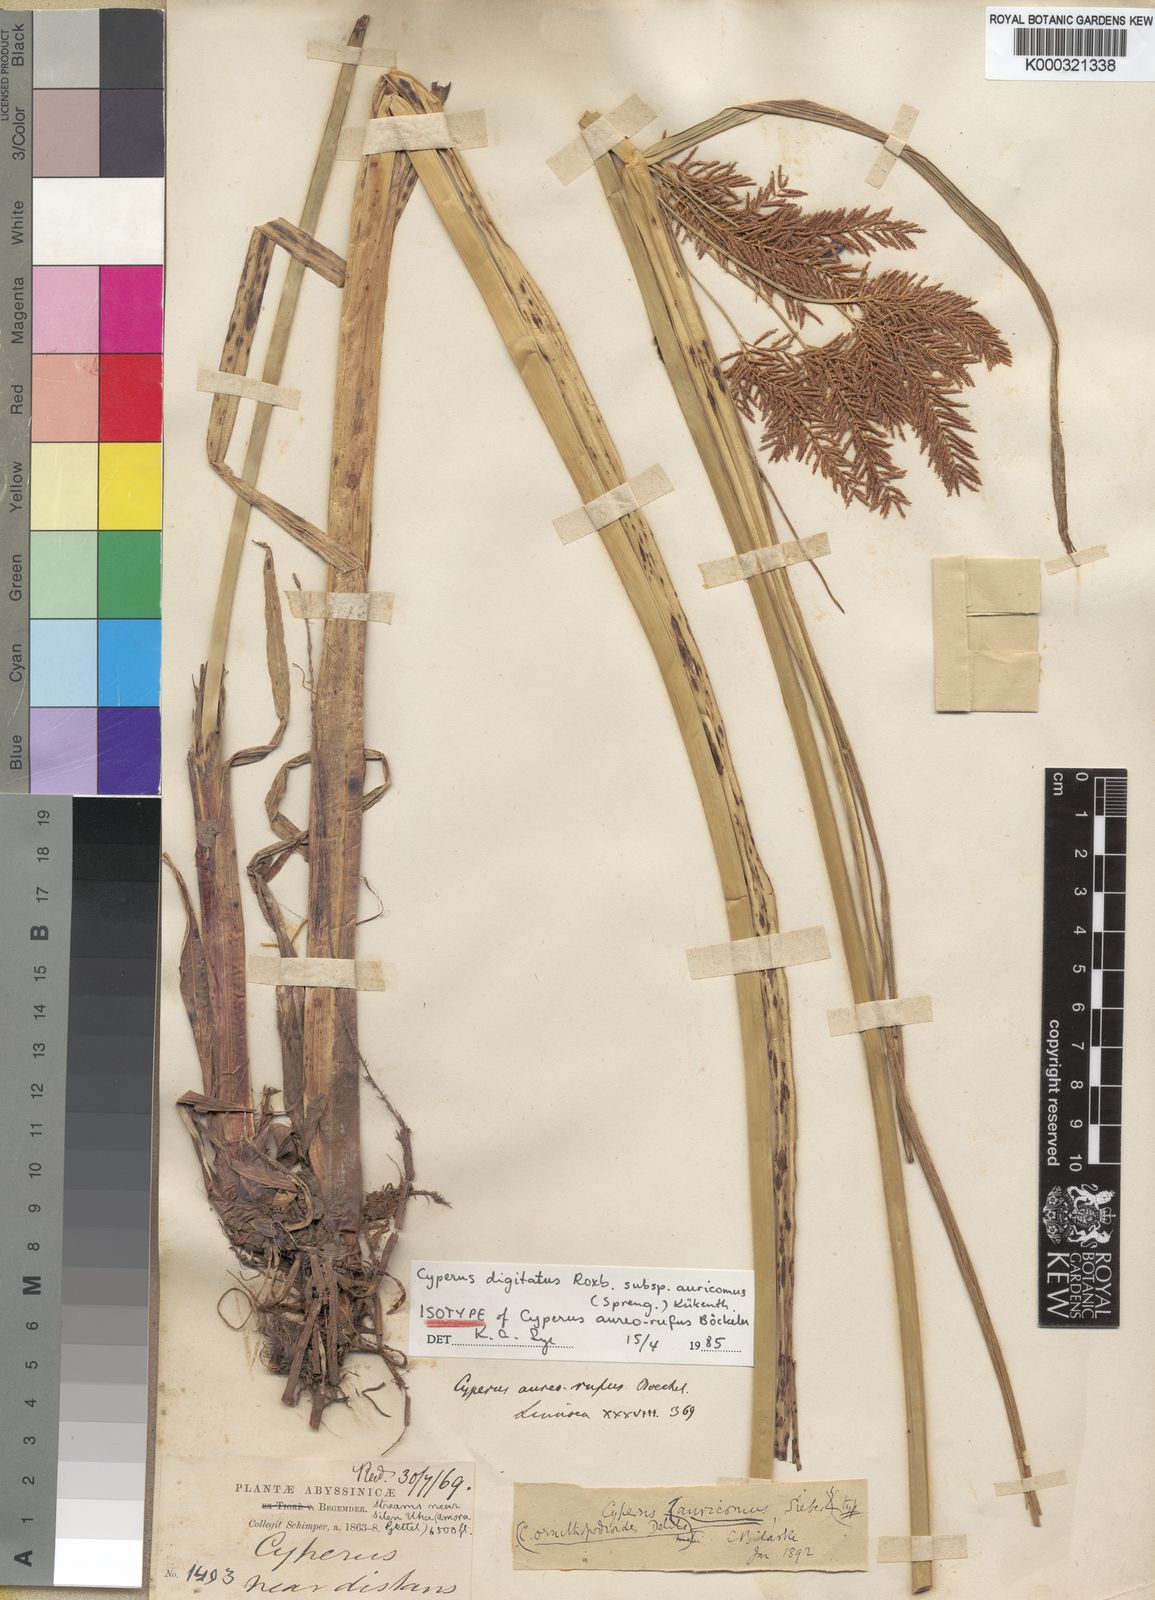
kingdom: Plantae
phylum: Tracheophyta
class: Liliopsida
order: Poales
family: Cyperaceae
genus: Cyperus
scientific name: Cyperus digitatus
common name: Finger flatsedge
